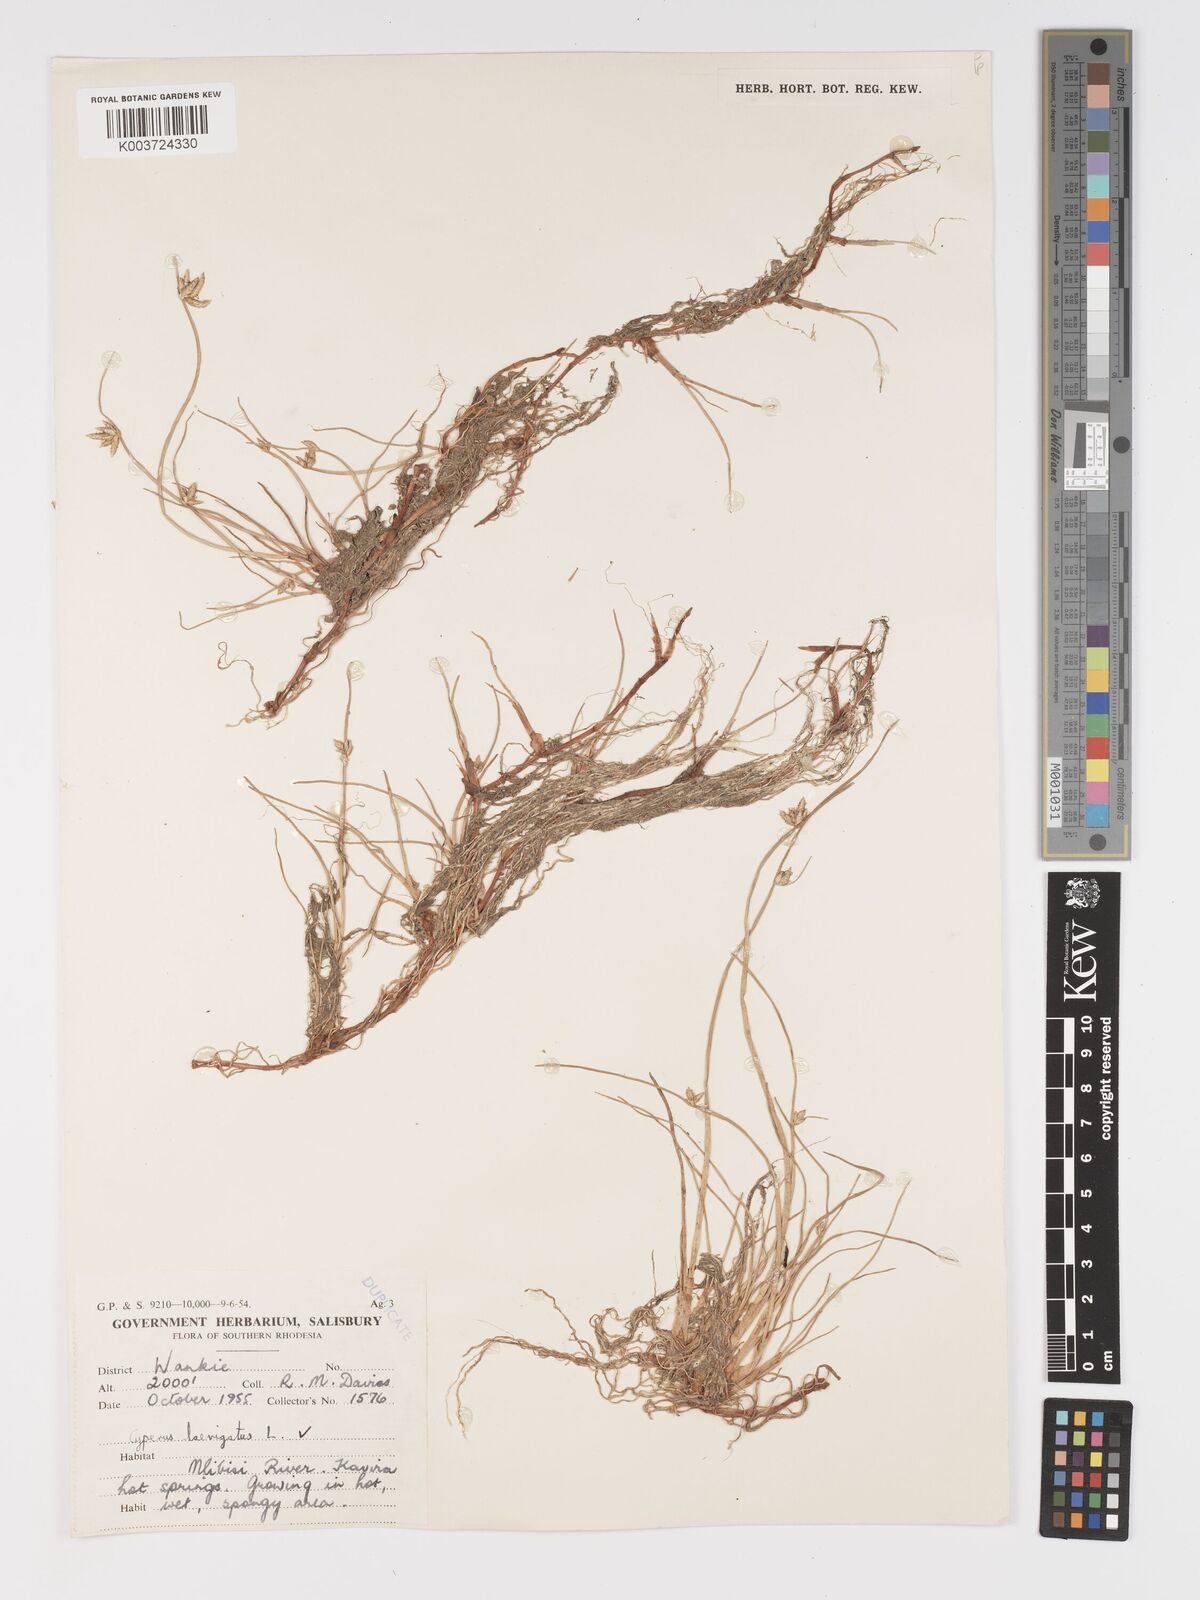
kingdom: Plantae
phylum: Tracheophyta
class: Liliopsida
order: Poales
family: Cyperaceae
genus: Cyperus
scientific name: Cyperus laevigatus
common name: Smooth flat sedge
